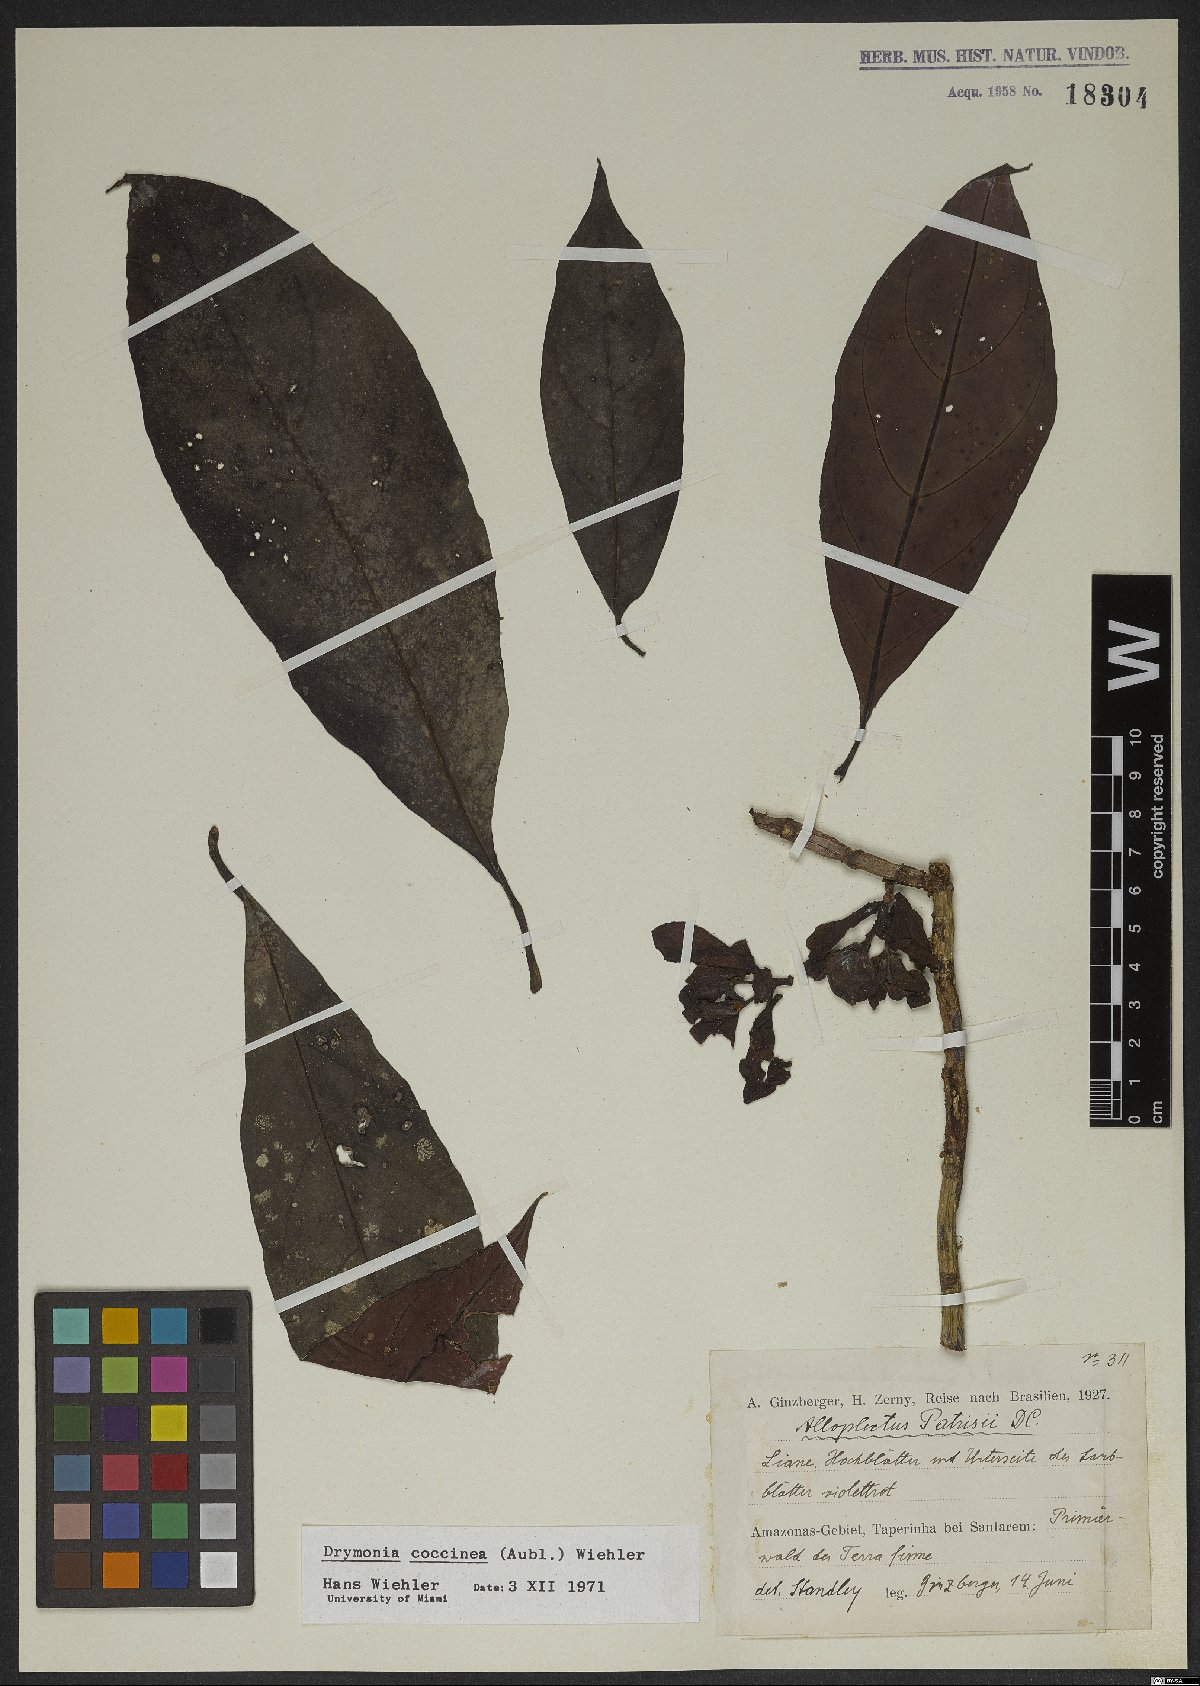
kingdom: Plantae
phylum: Tracheophyta
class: Magnoliopsida
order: Lamiales
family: Gesneriaceae
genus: Drymonia
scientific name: Drymonia coccinea
